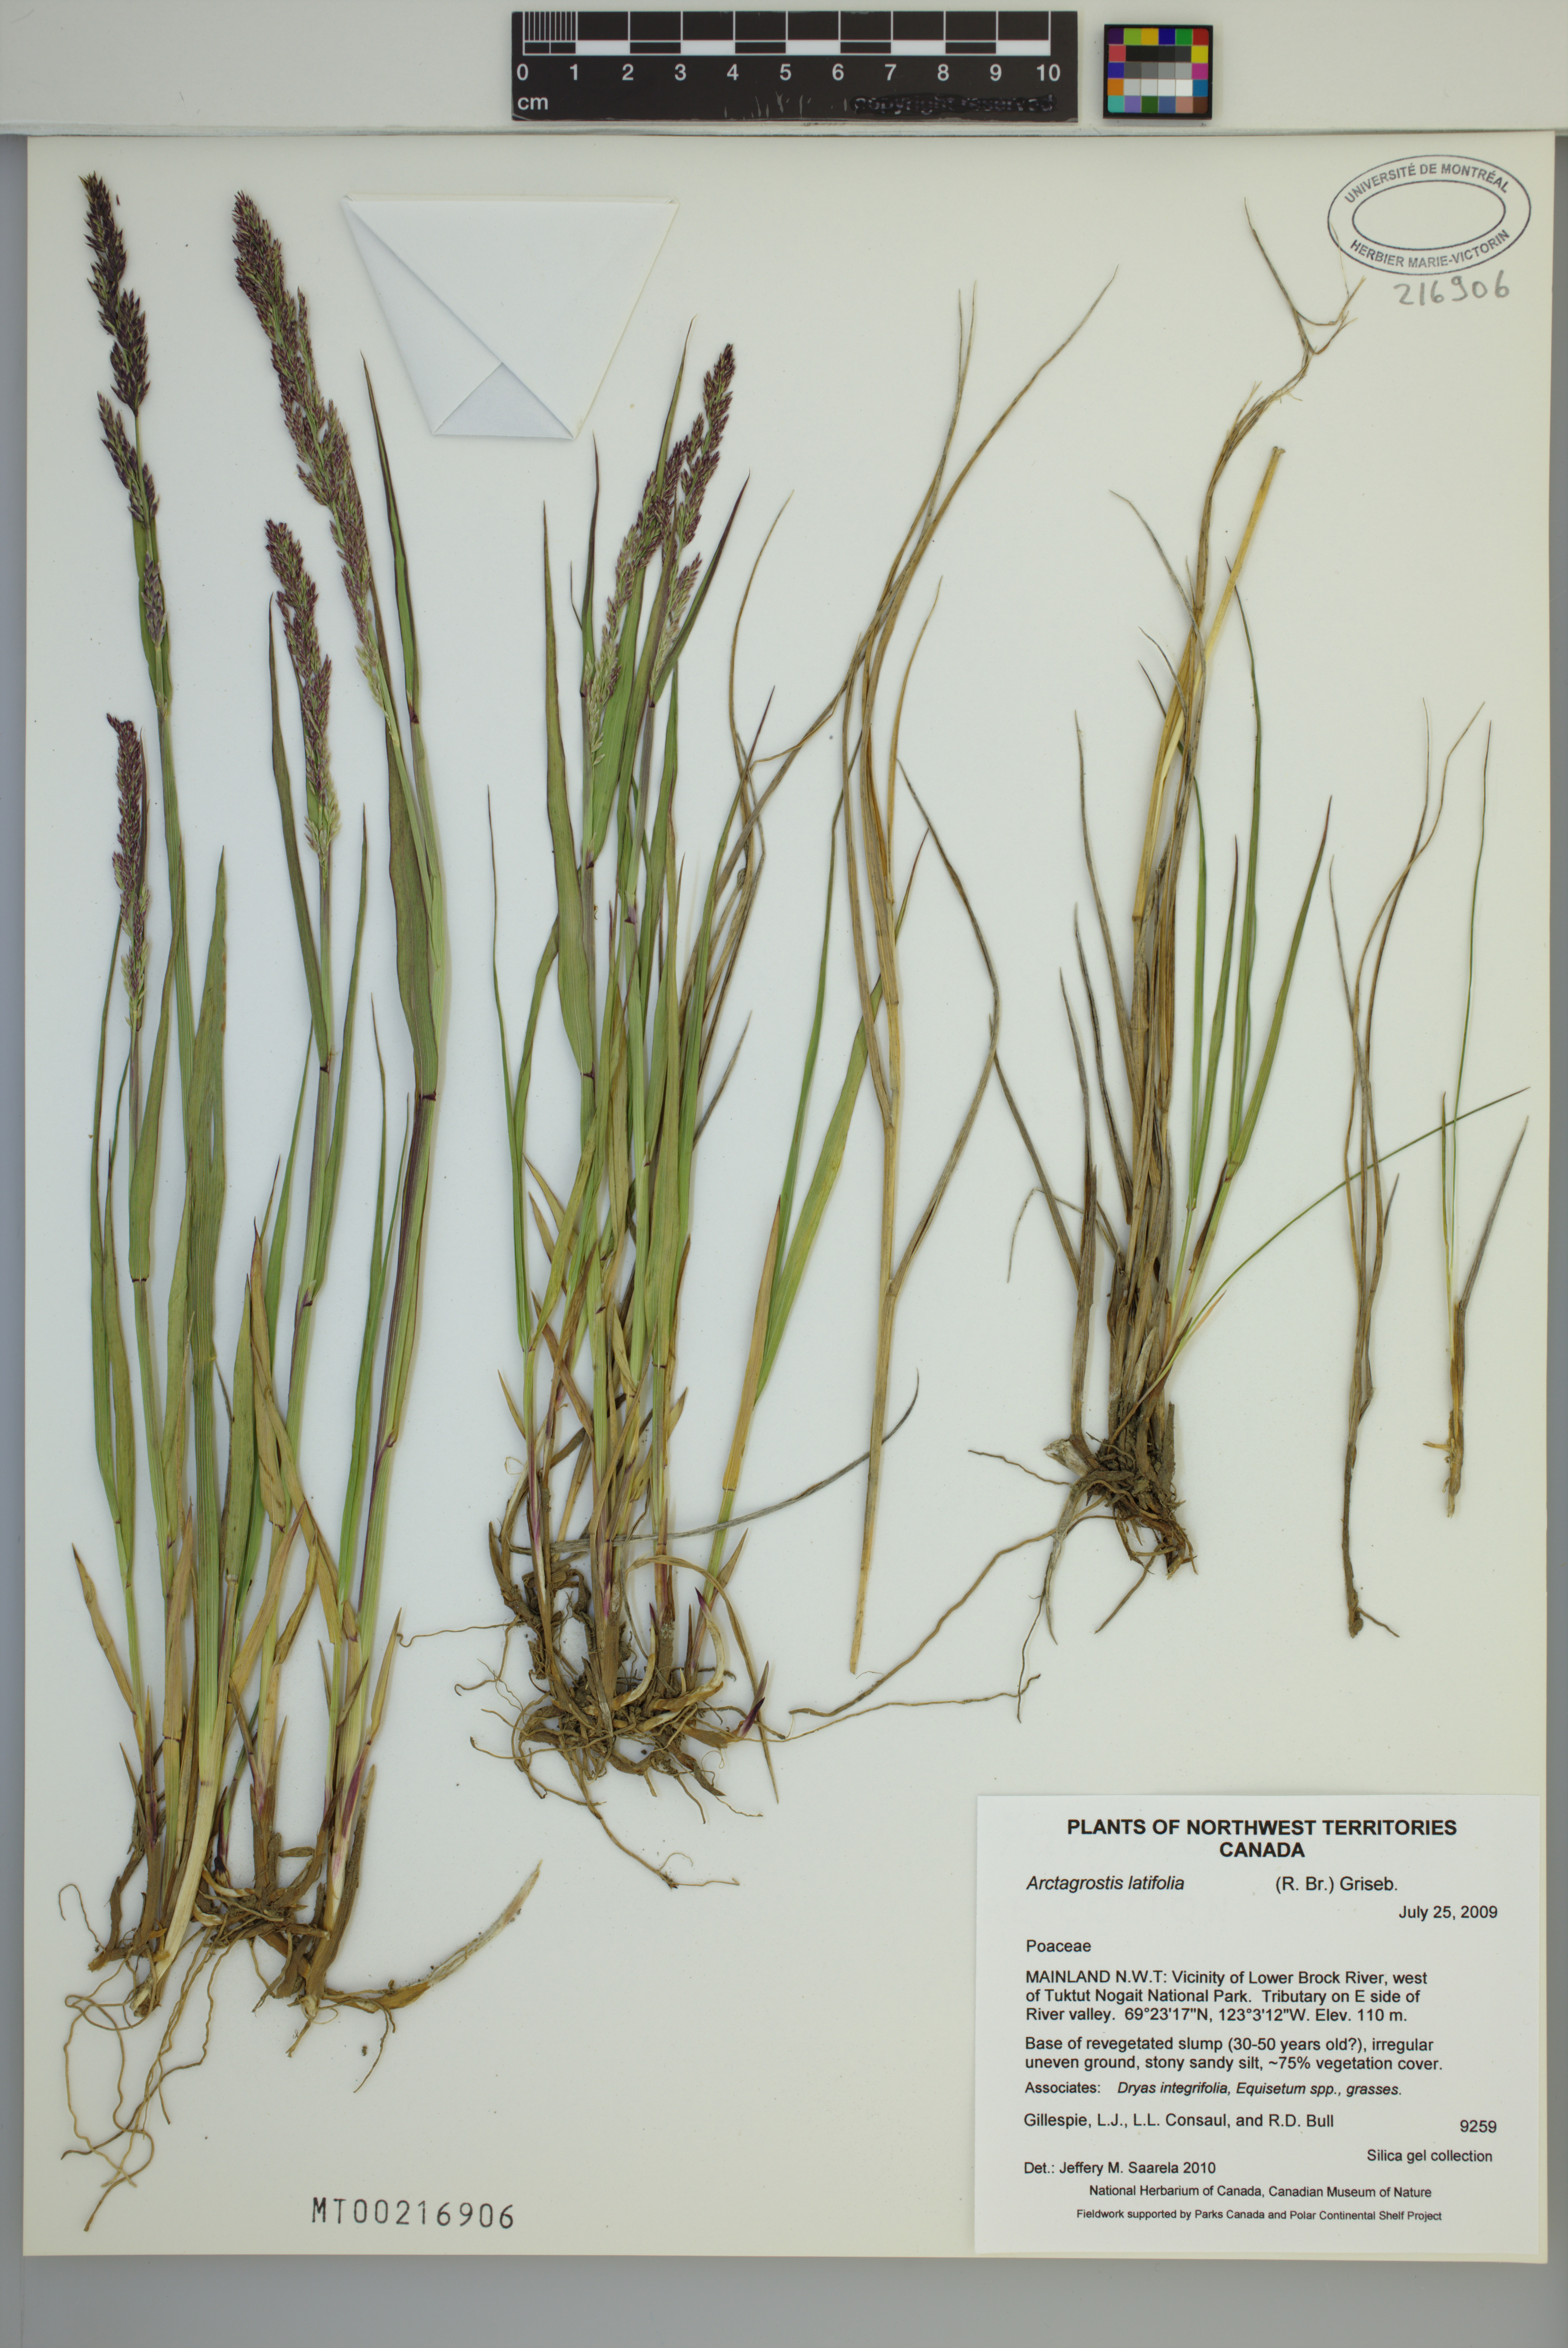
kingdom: Plantae
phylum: Tracheophyta
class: Liliopsida
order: Poales
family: Poaceae
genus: Arctagrostis
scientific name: Arctagrostis latifolia
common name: Arctic grass
